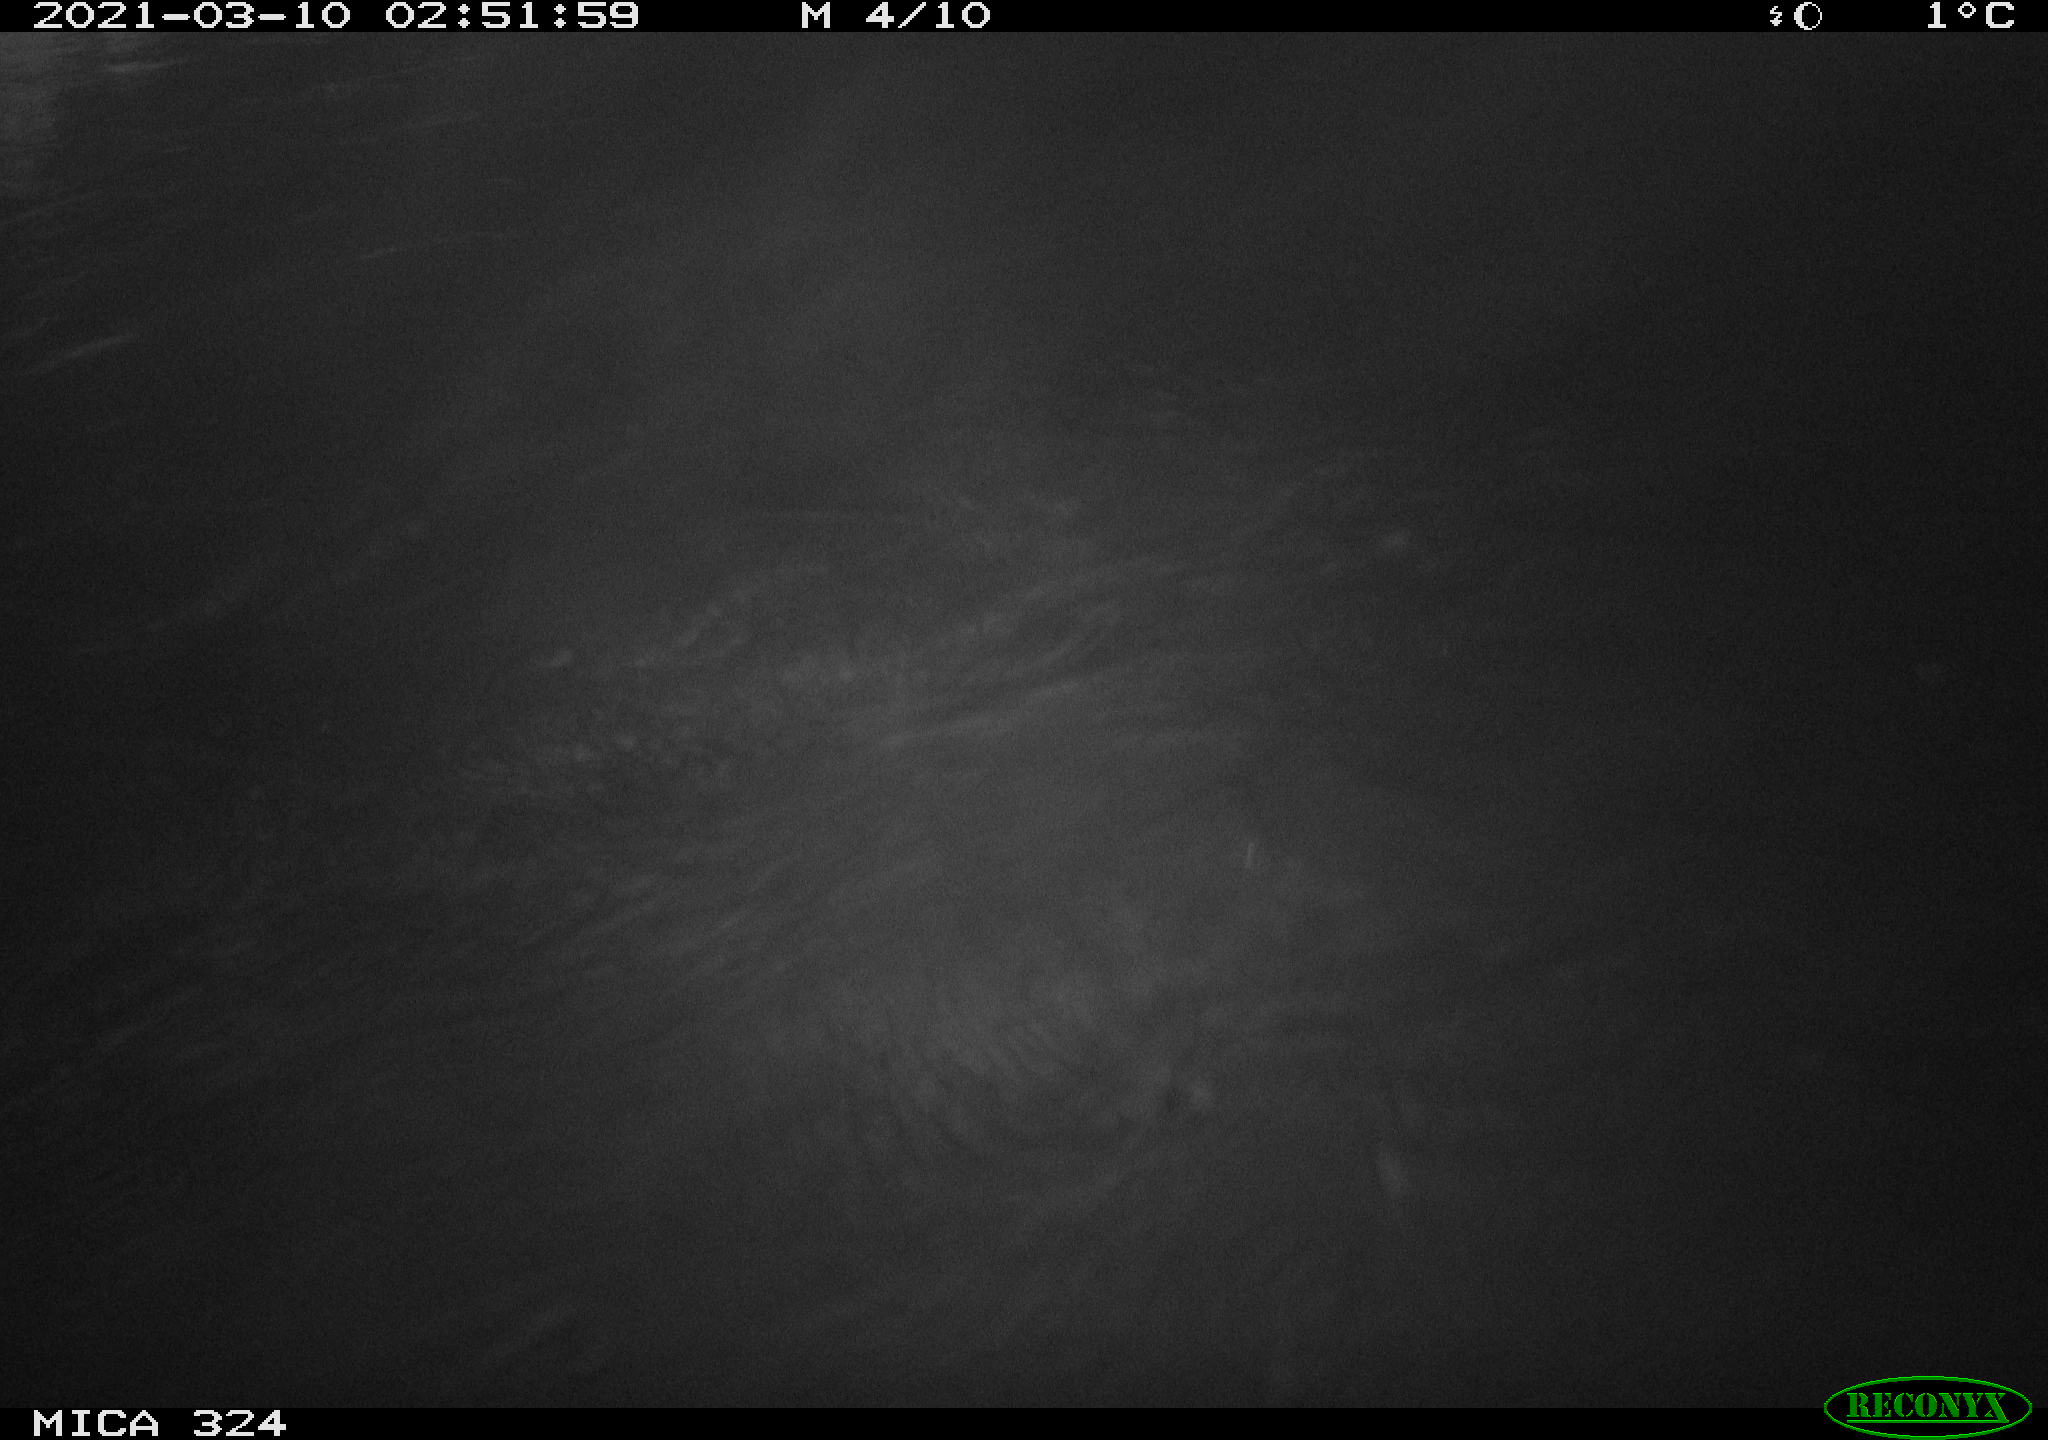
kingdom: Animalia
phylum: Chordata
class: Mammalia
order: Rodentia
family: Cricetidae
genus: Ondatra
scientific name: Ondatra zibethicus
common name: Muskrat
